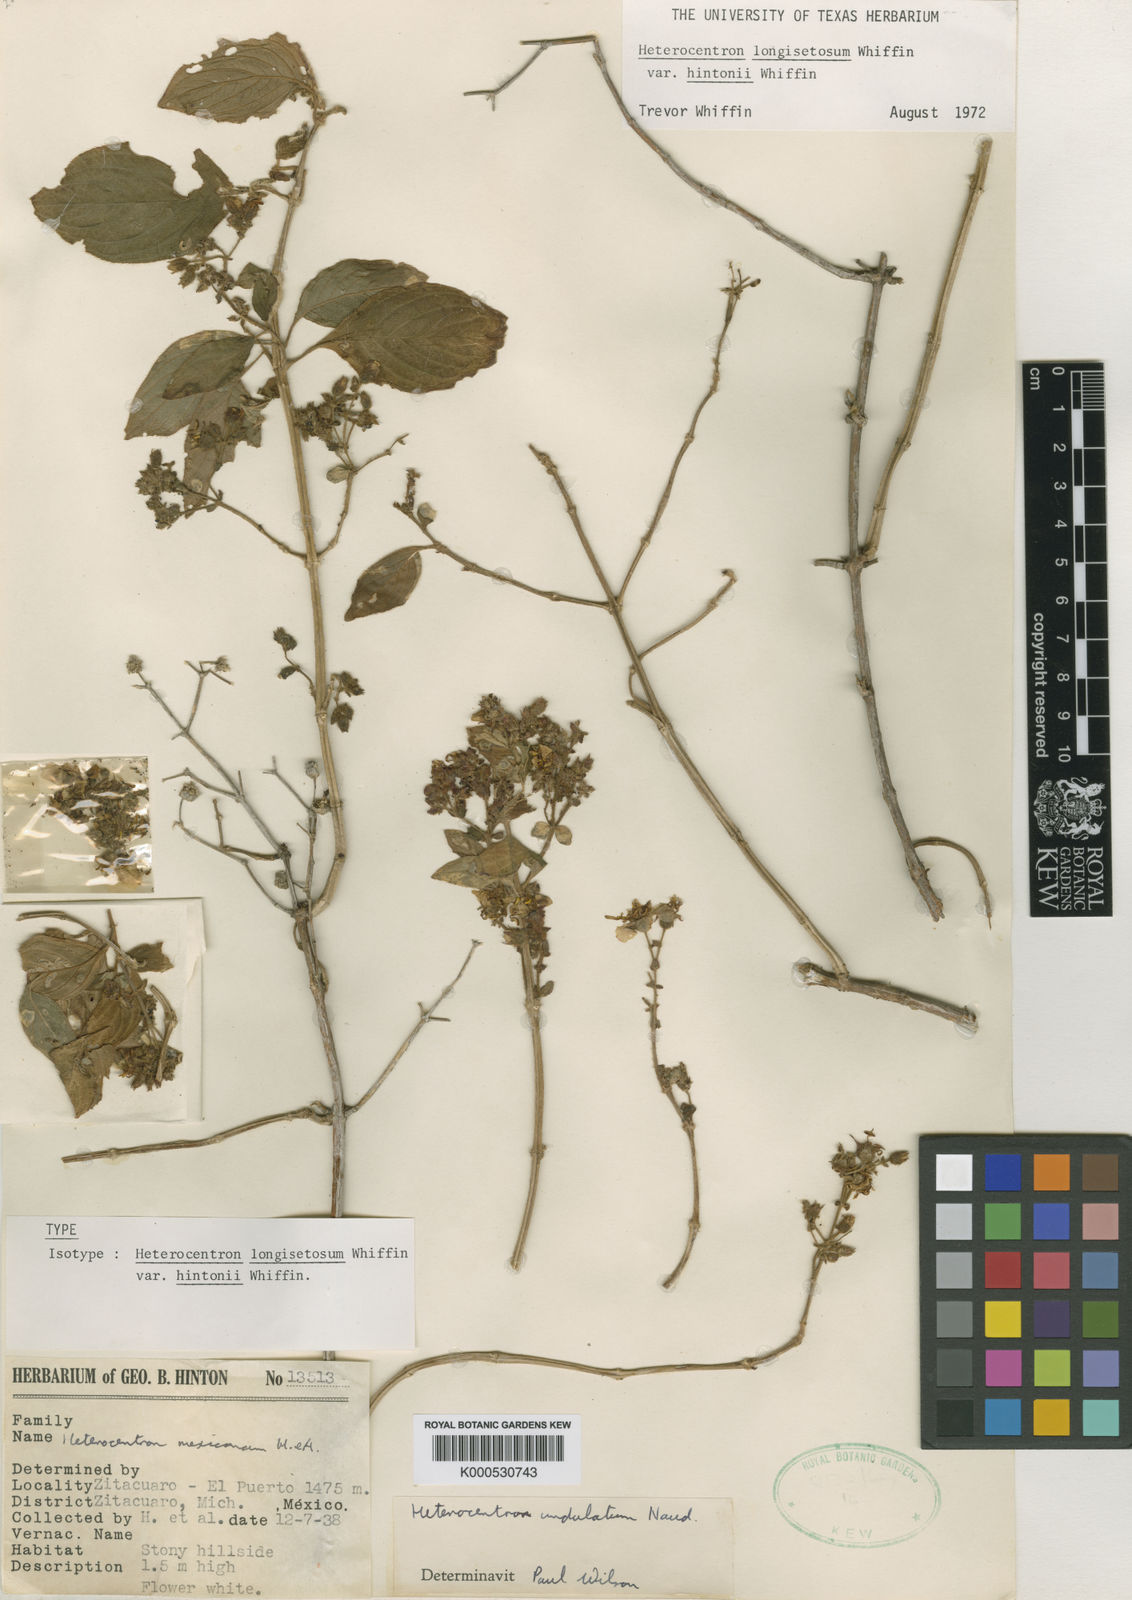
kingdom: Plantae
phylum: Tracheophyta
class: Magnoliopsida
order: Myrtales
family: Melastomataceae
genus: Heterocentron
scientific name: Heterocentron
